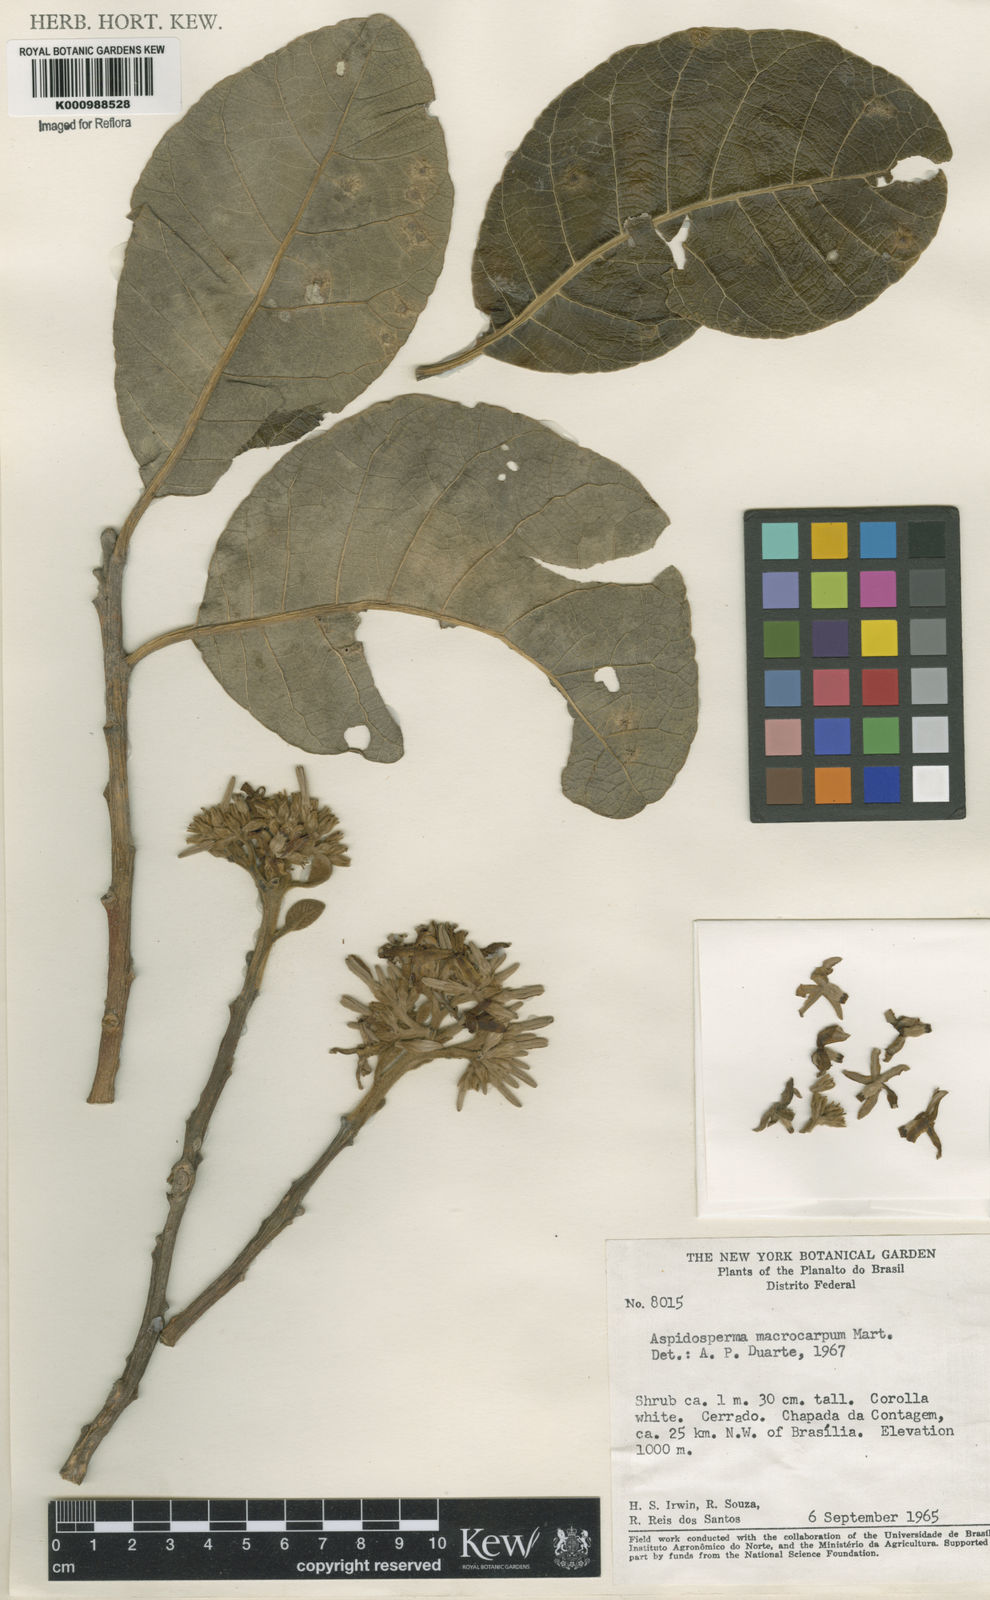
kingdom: Plantae
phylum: Tracheophyta
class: Magnoliopsida
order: Gentianales
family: Apocynaceae
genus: Aspidosperma
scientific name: Aspidosperma macrocarpon
